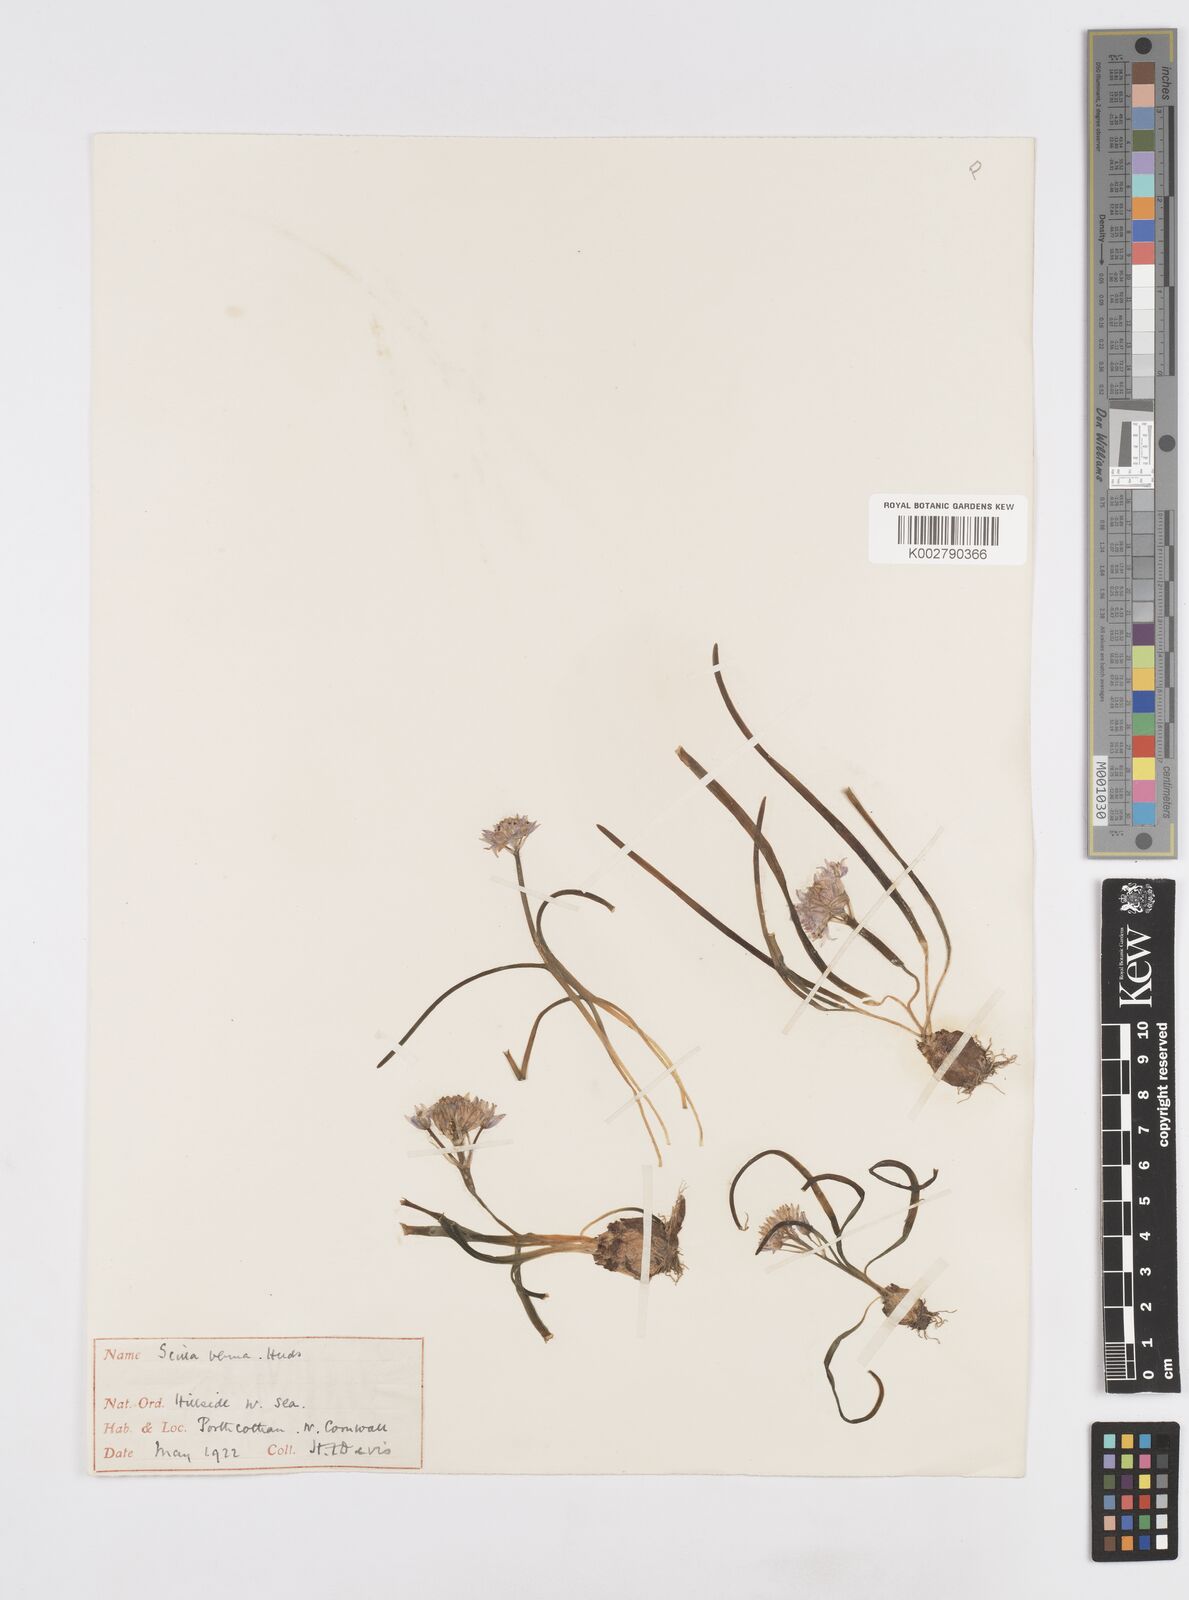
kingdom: Plantae
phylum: Tracheophyta
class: Liliopsida
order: Asparagales
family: Asparagaceae
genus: Scilla
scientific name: Scilla verna
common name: Spring squill
